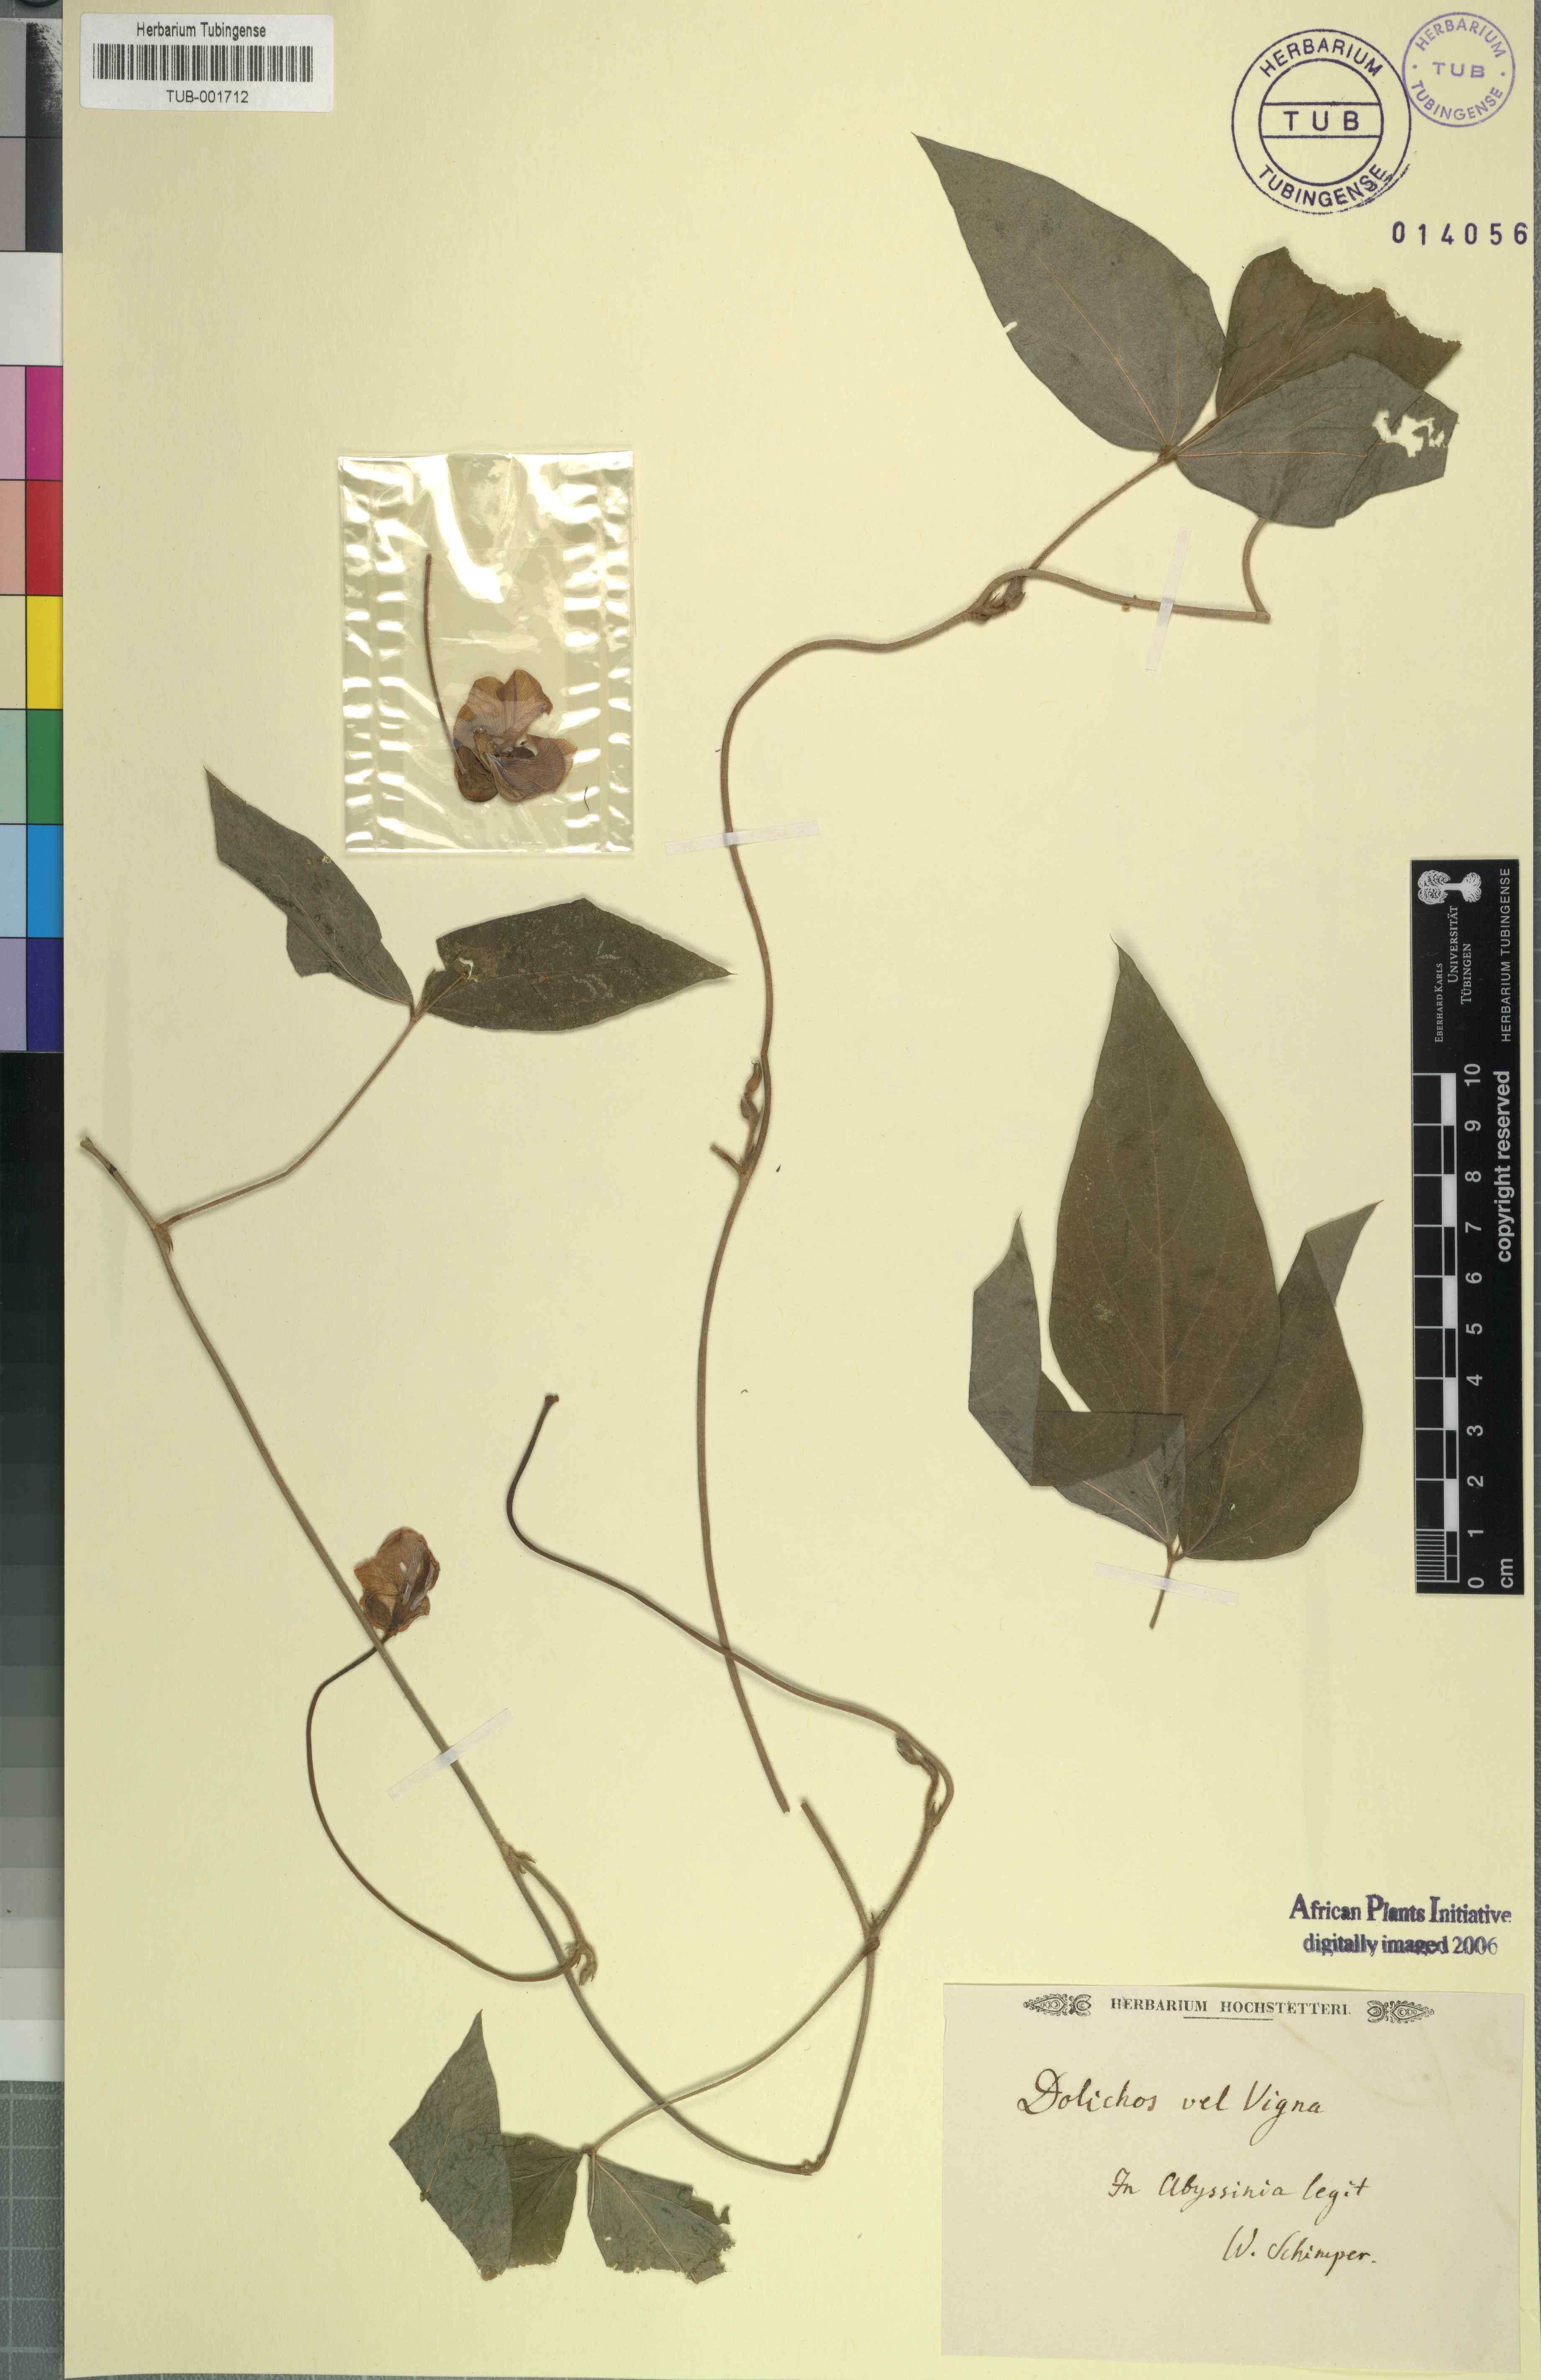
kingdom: Plantae
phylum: Tracheophyta
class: Magnoliopsida
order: Fabales
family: Fabaceae
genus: Dolichos
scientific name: Dolichos
